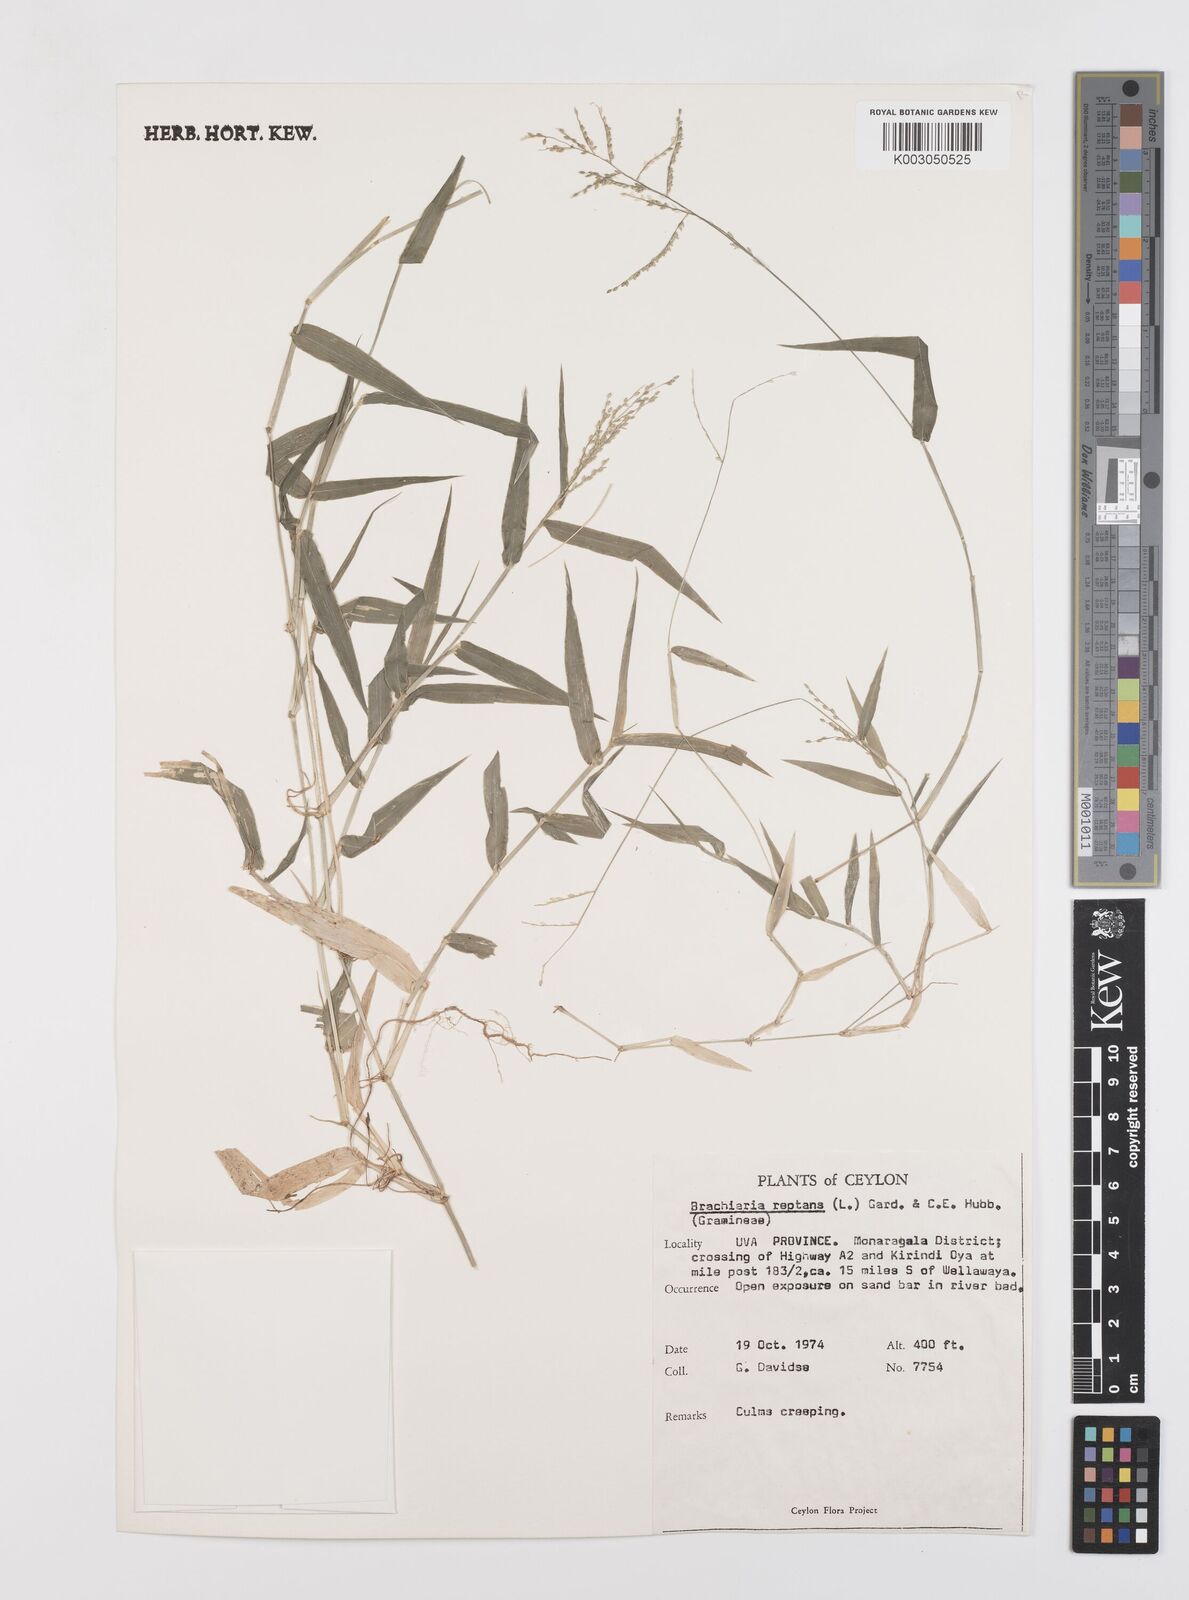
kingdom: Plantae
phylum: Tracheophyta
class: Liliopsida
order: Poales
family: Poaceae
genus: Urochloa
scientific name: Urochloa reptans
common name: Sprawling signalgrass
